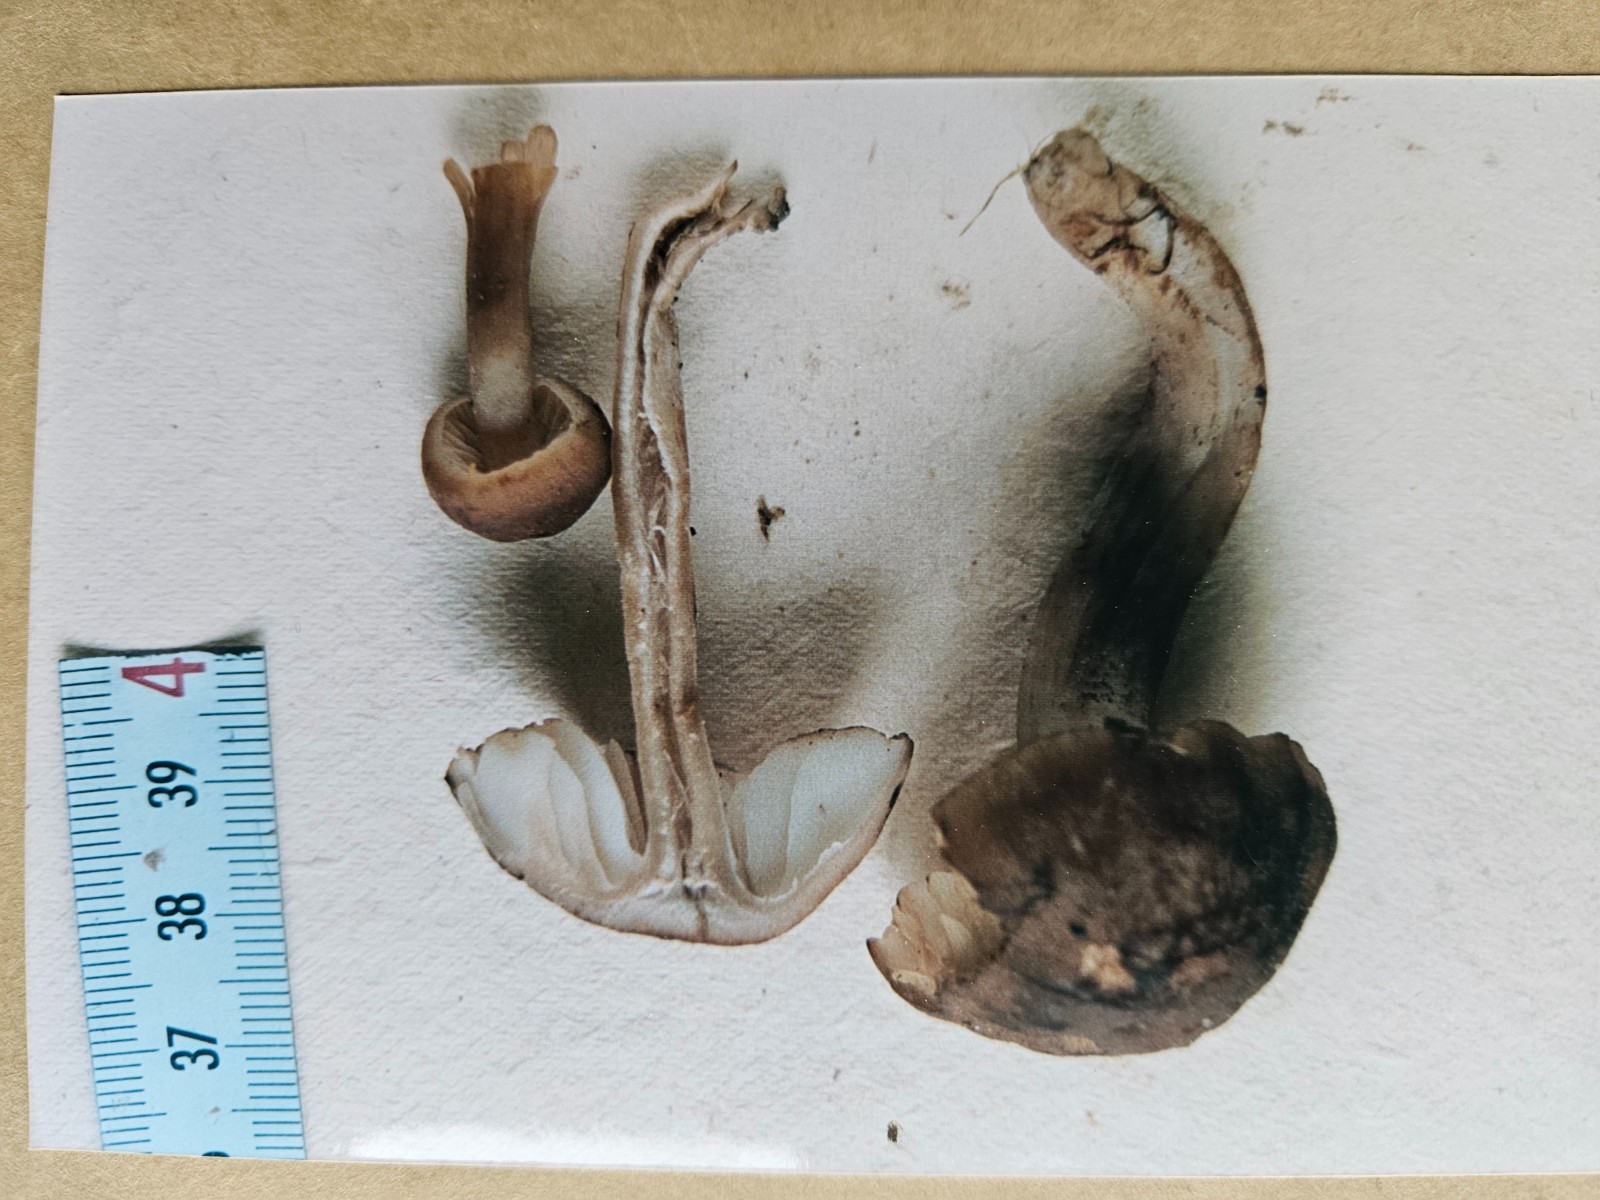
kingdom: Fungi
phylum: Basidiomycota
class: Agaricomycetes
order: Agaricales
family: Hygrophoraceae
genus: Hygrocybe
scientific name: Hygrocybe ingrata
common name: Jensens vokshat
